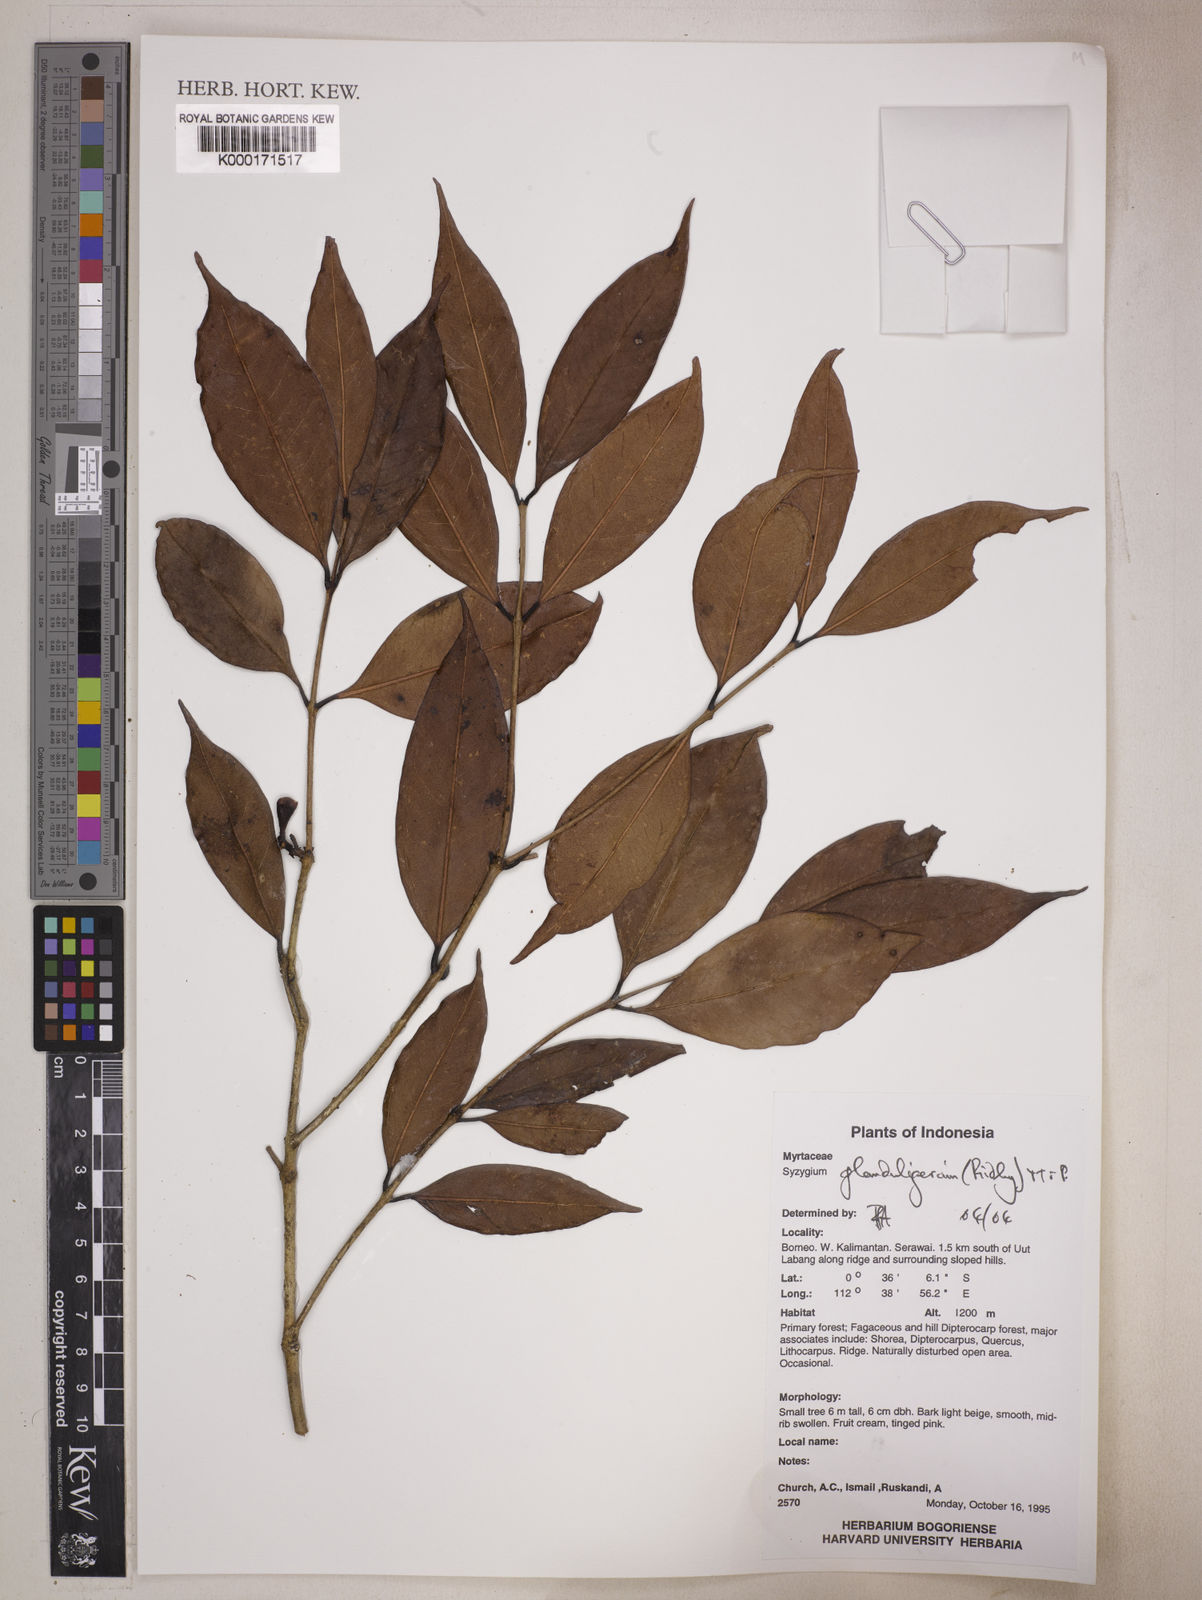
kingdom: Plantae
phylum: Tracheophyta
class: Magnoliopsida
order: Myrtales
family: Myrtaceae
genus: Syzygium
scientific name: Syzygium glanduligerum
